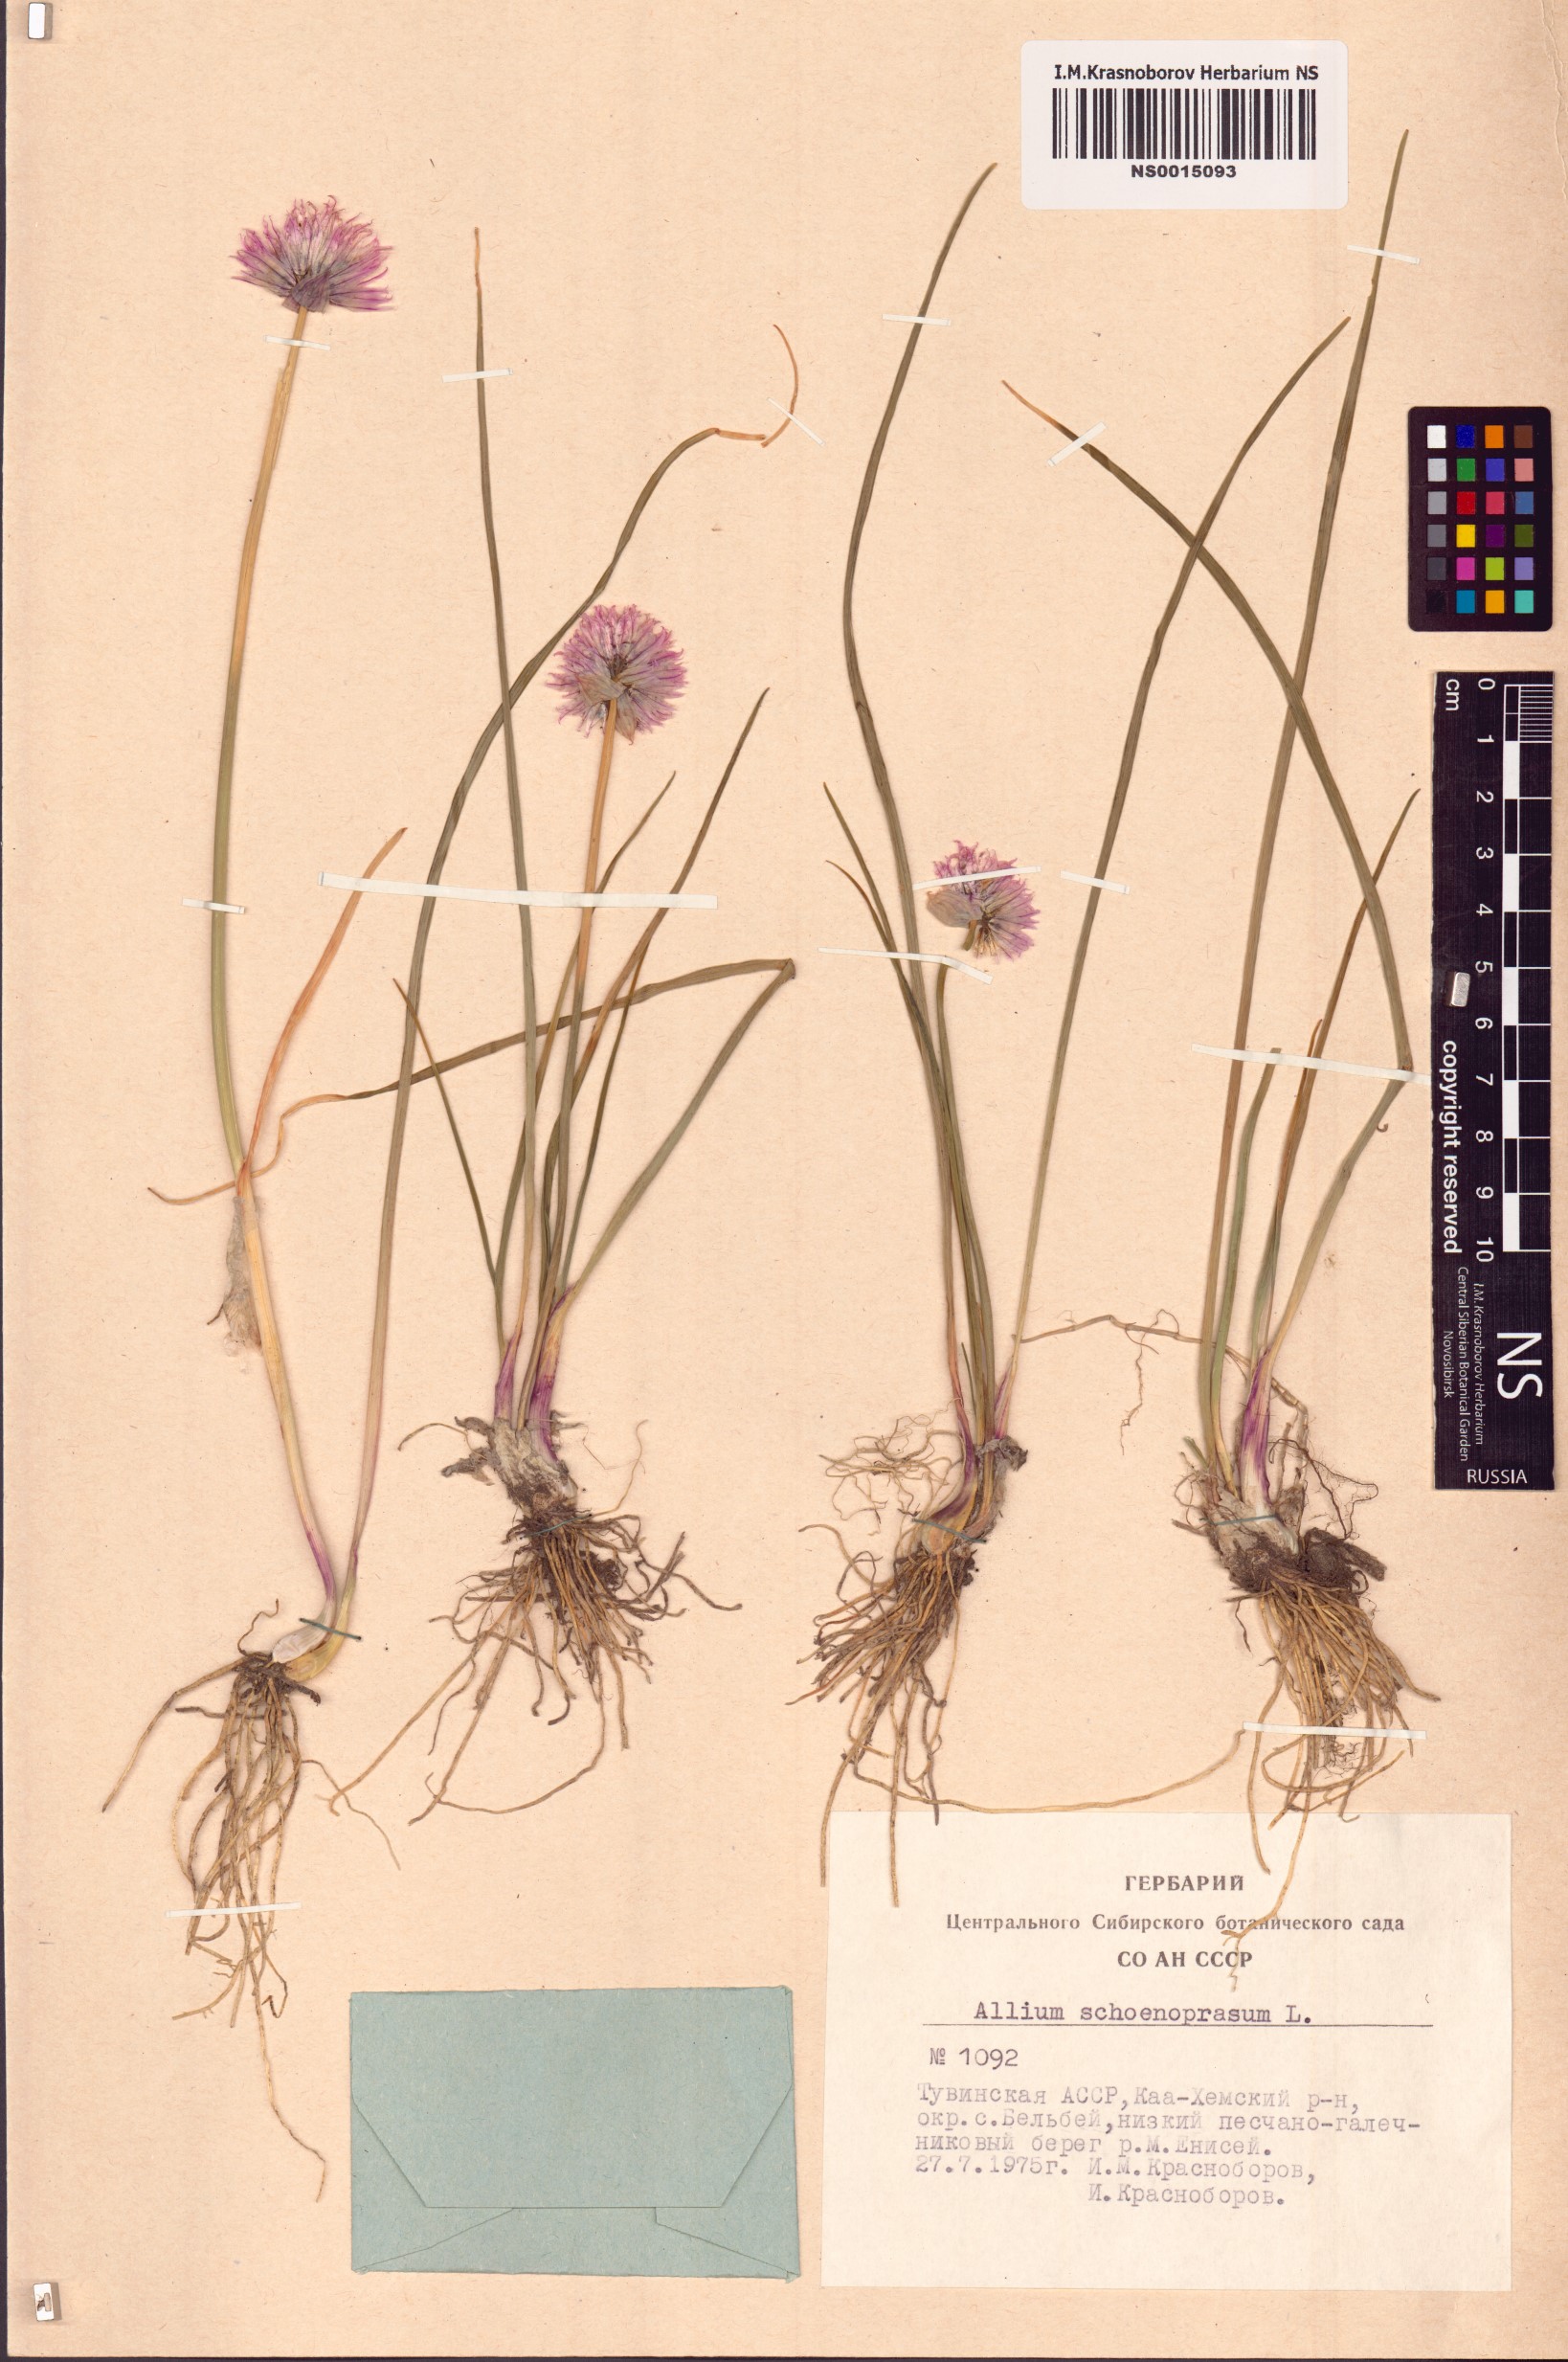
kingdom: Plantae
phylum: Tracheophyta
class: Liliopsida
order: Asparagales
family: Amaryllidaceae
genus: Allium
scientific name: Allium schoenoprasum
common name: Chives
